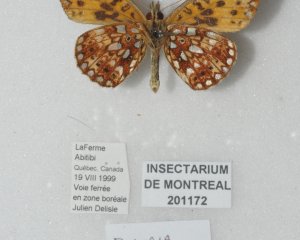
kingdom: Animalia
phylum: Arthropoda
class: Insecta
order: Lepidoptera
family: Nymphalidae
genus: Boloria
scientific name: Boloria selene
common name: Silver-bordered Fritillary
